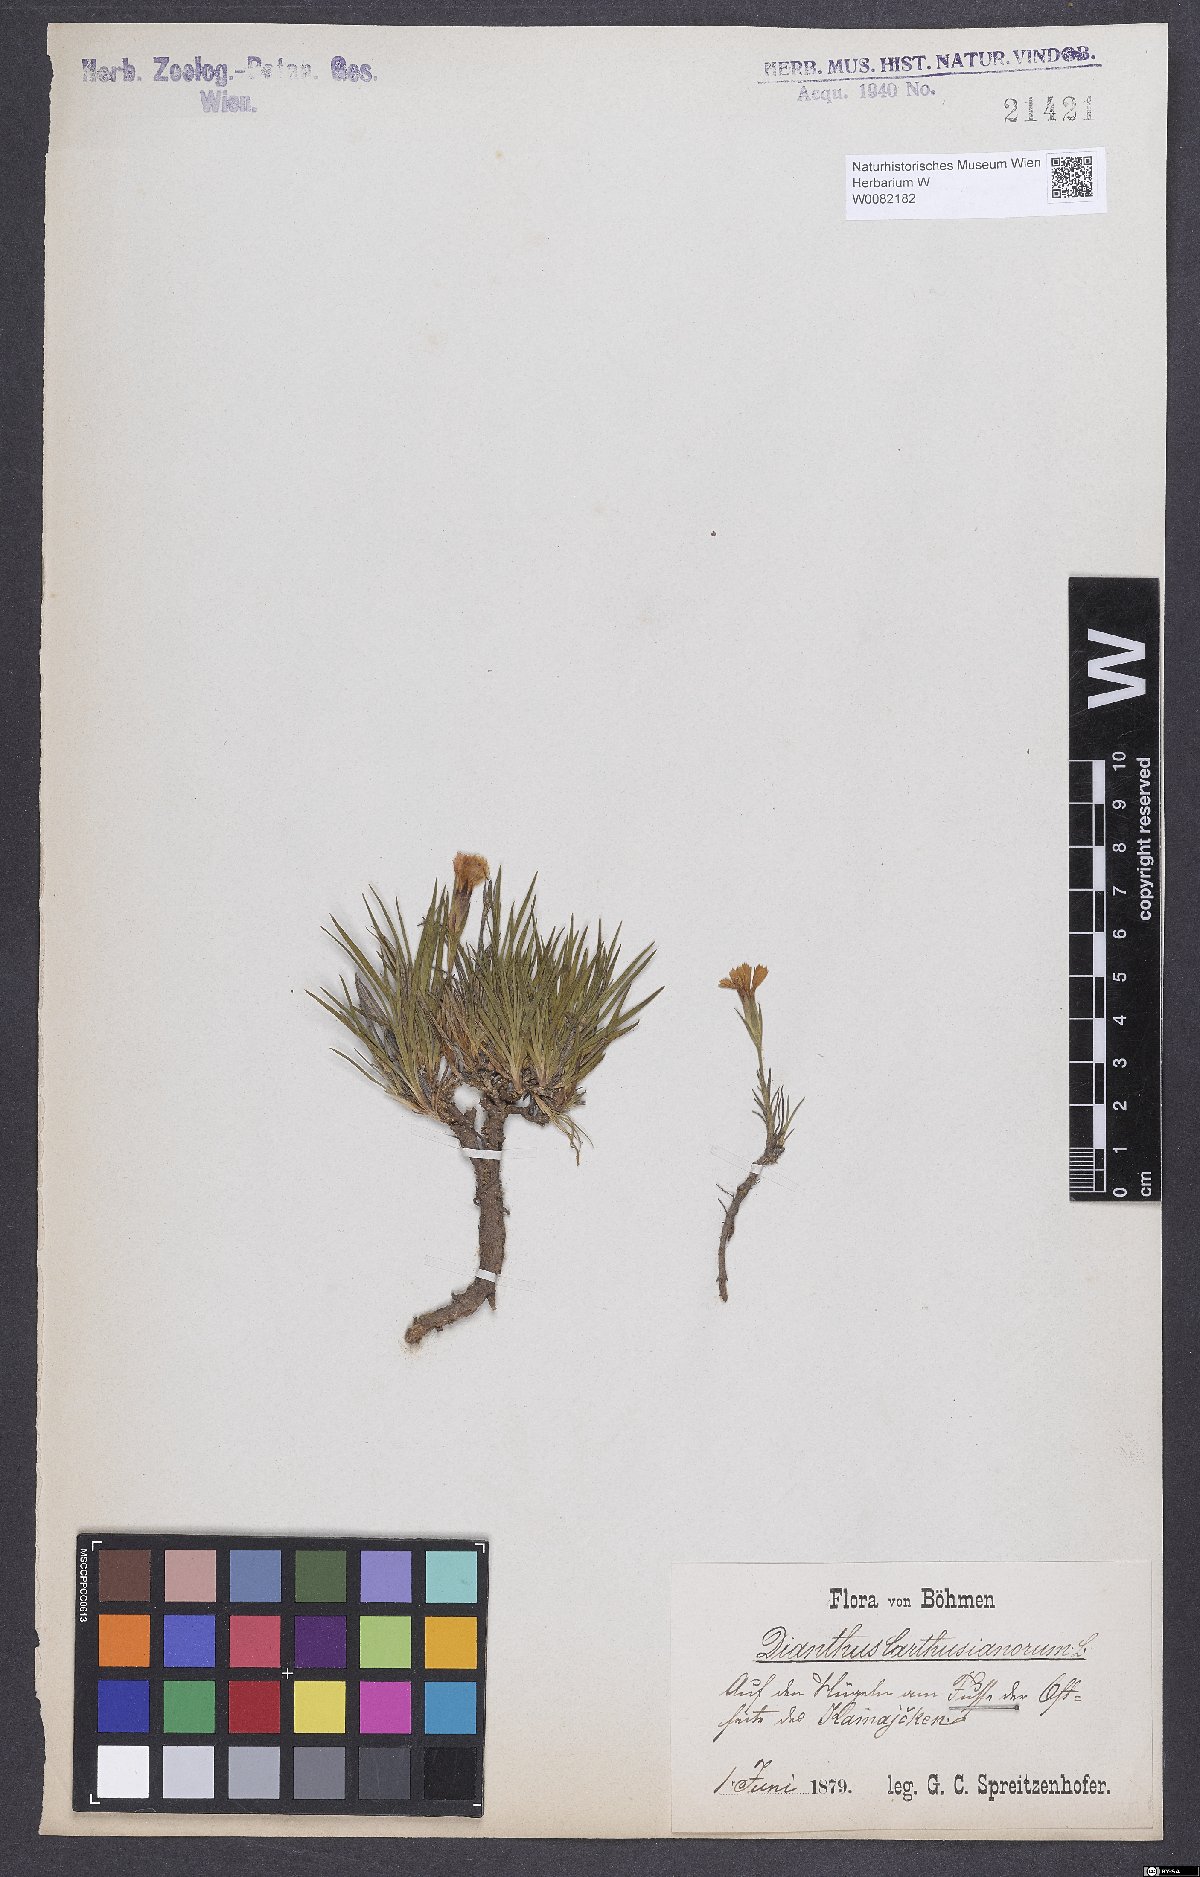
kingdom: Plantae
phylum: Tracheophyta
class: Magnoliopsida
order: Caryophyllales
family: Caryophyllaceae
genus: Dianthus
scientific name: Dianthus carthusianorum
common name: Carthusian pink
